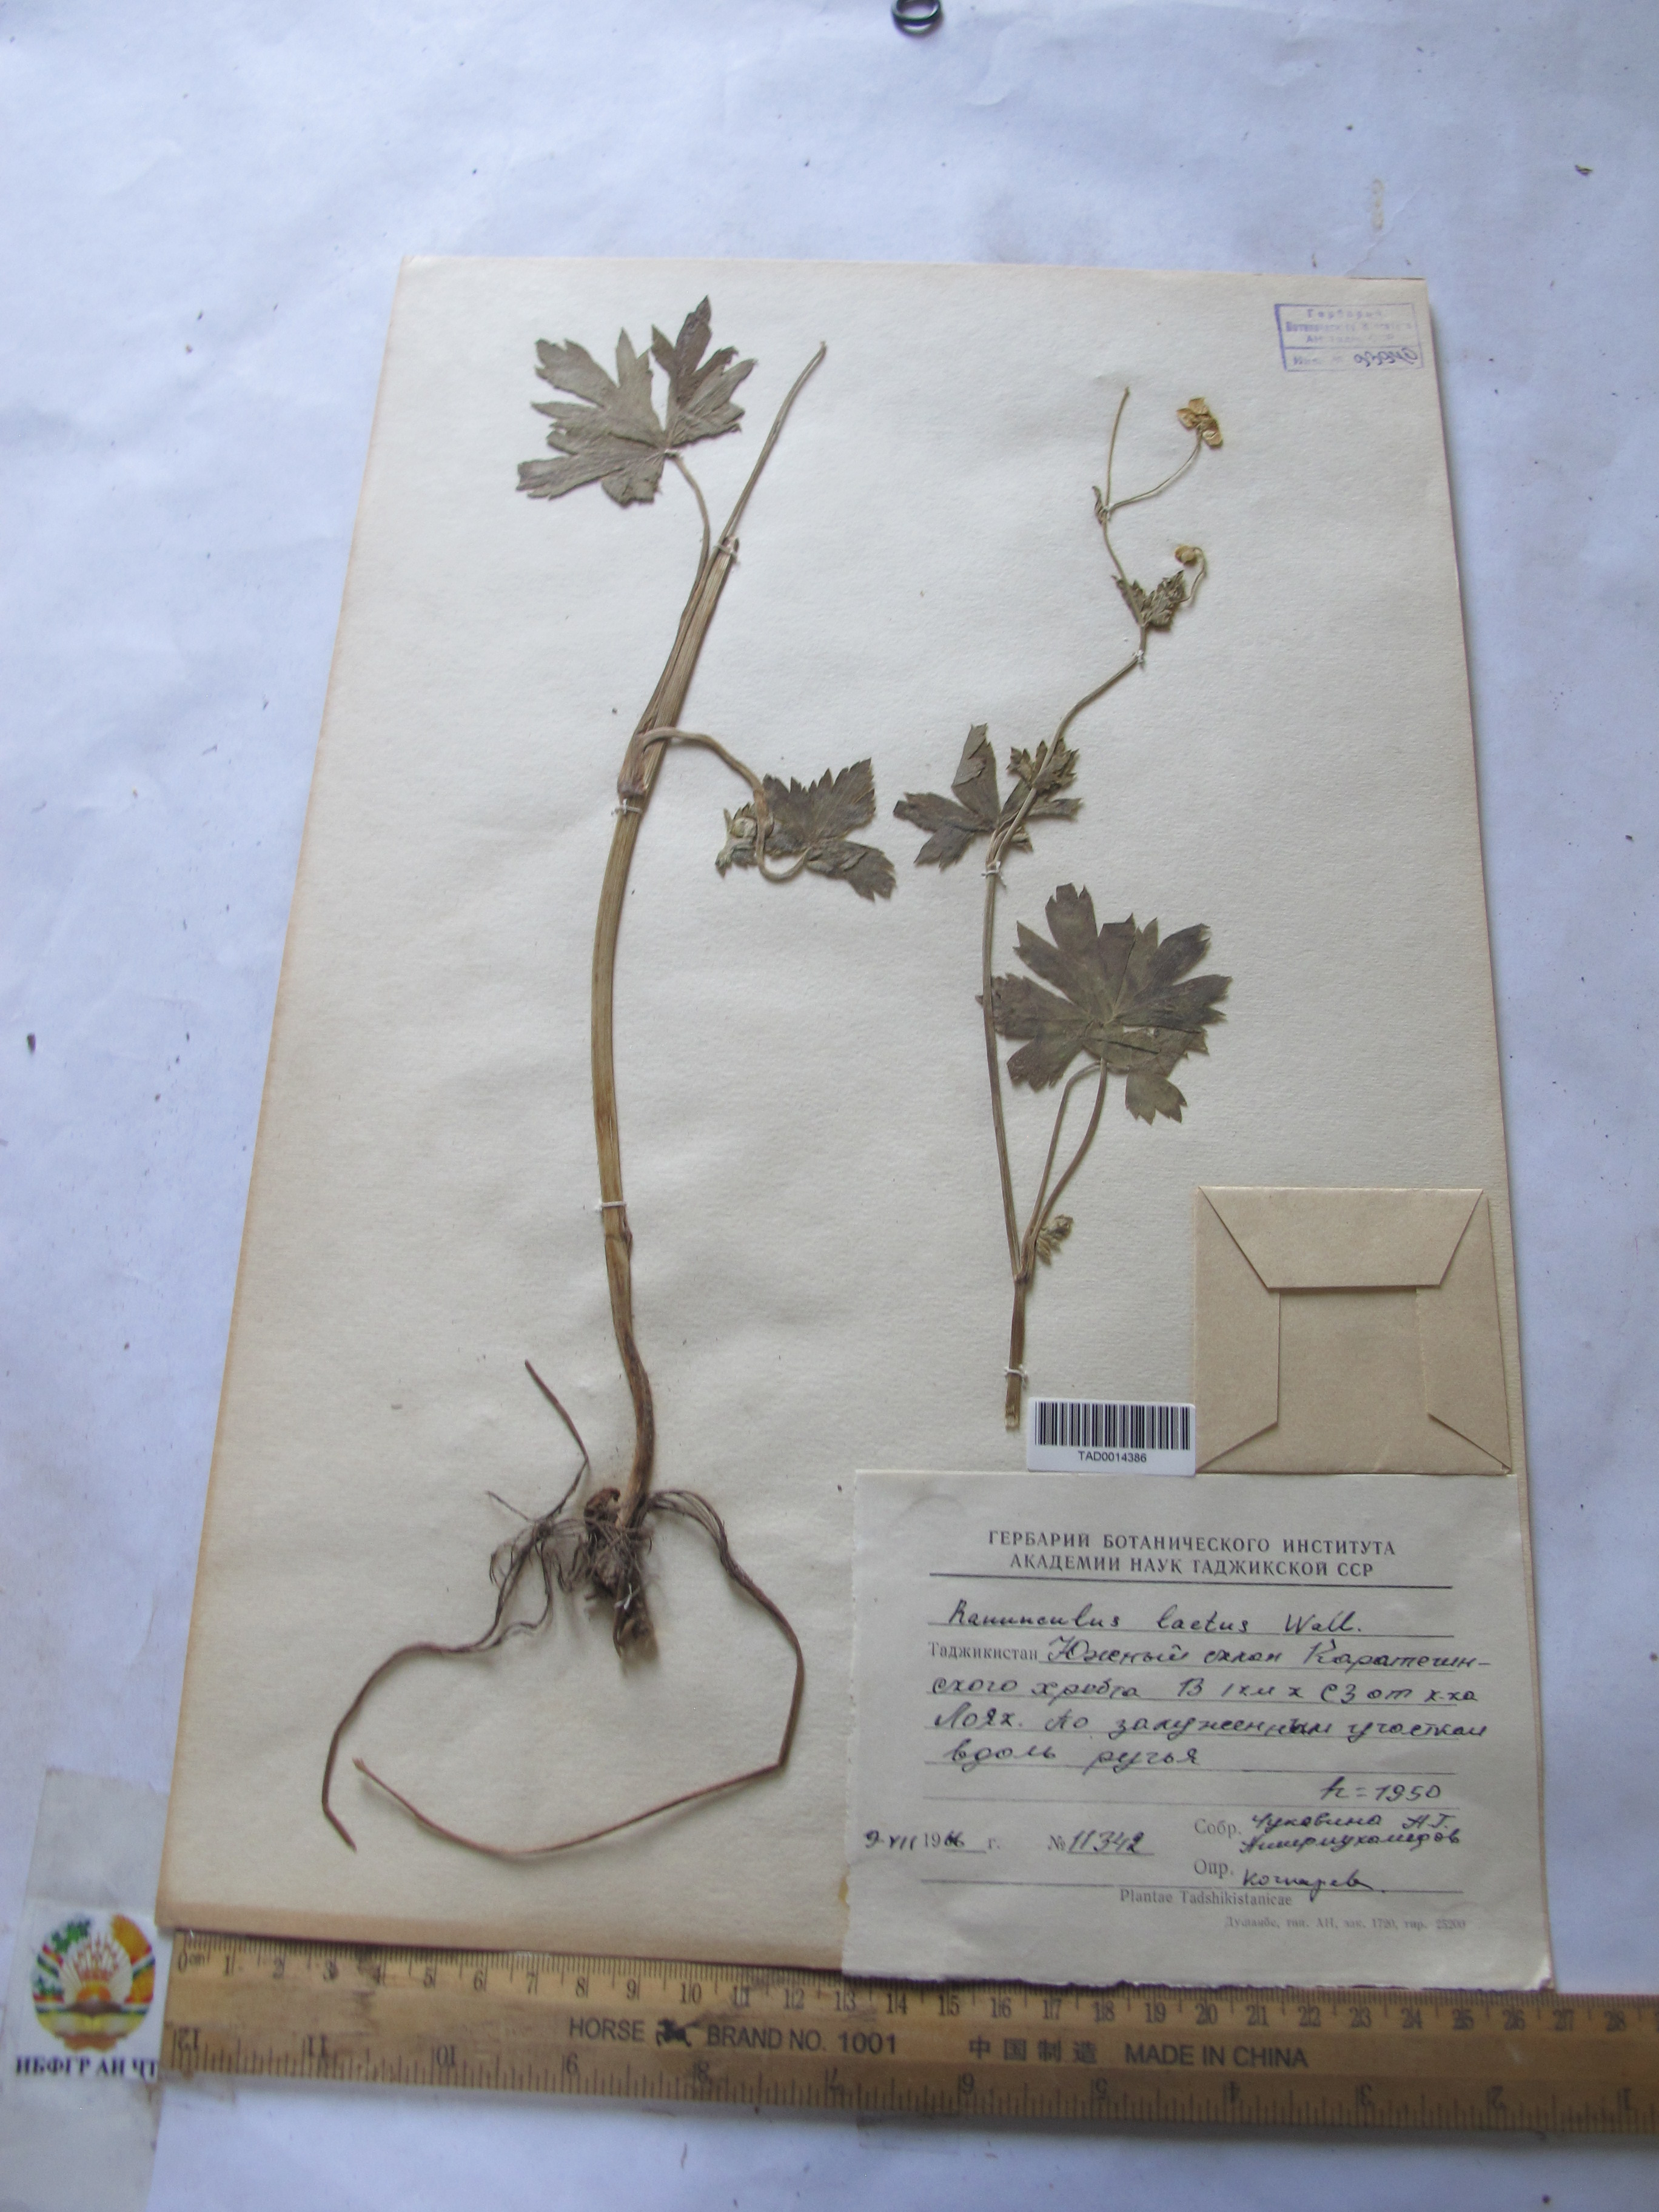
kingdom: Plantae
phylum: Tracheophyta
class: Magnoliopsida
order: Ranunculales
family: Ranunculaceae
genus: Ranunculus
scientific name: Ranunculus distans
